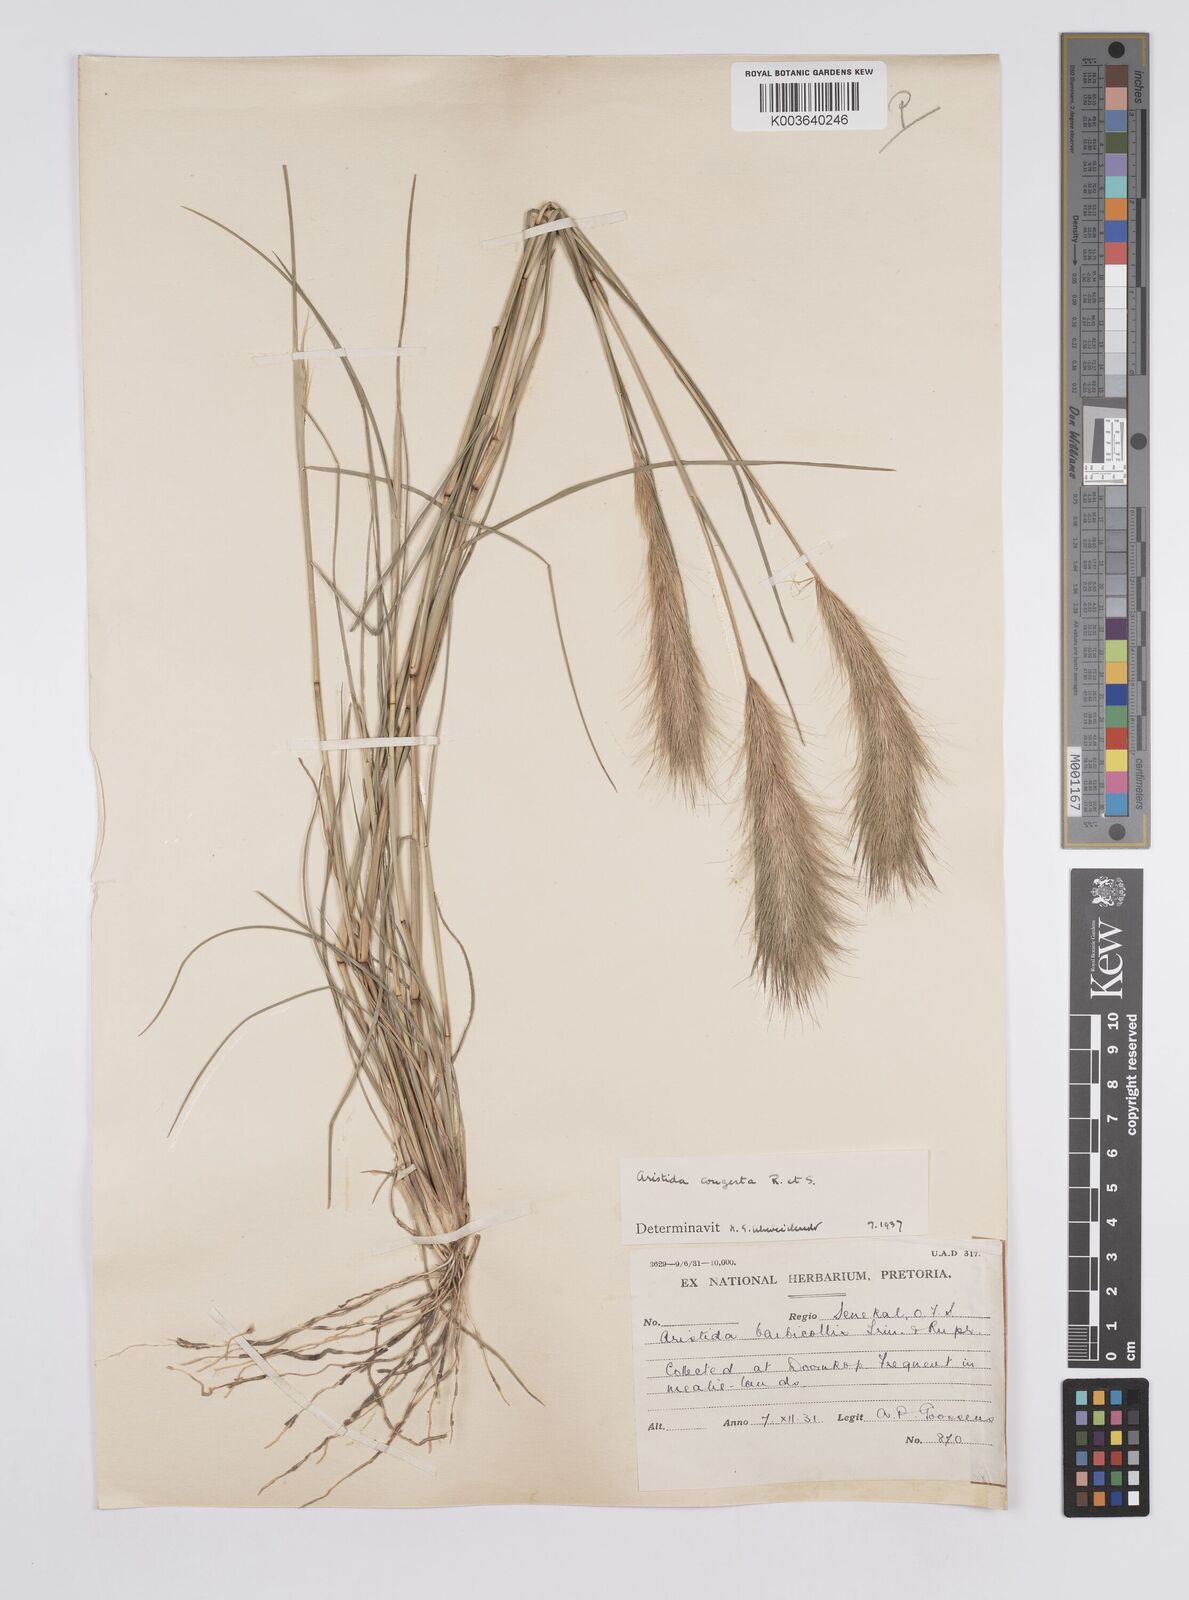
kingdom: Plantae
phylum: Tracheophyta
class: Liliopsida
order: Poales
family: Poaceae
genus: Aristida
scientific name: Aristida congesta
